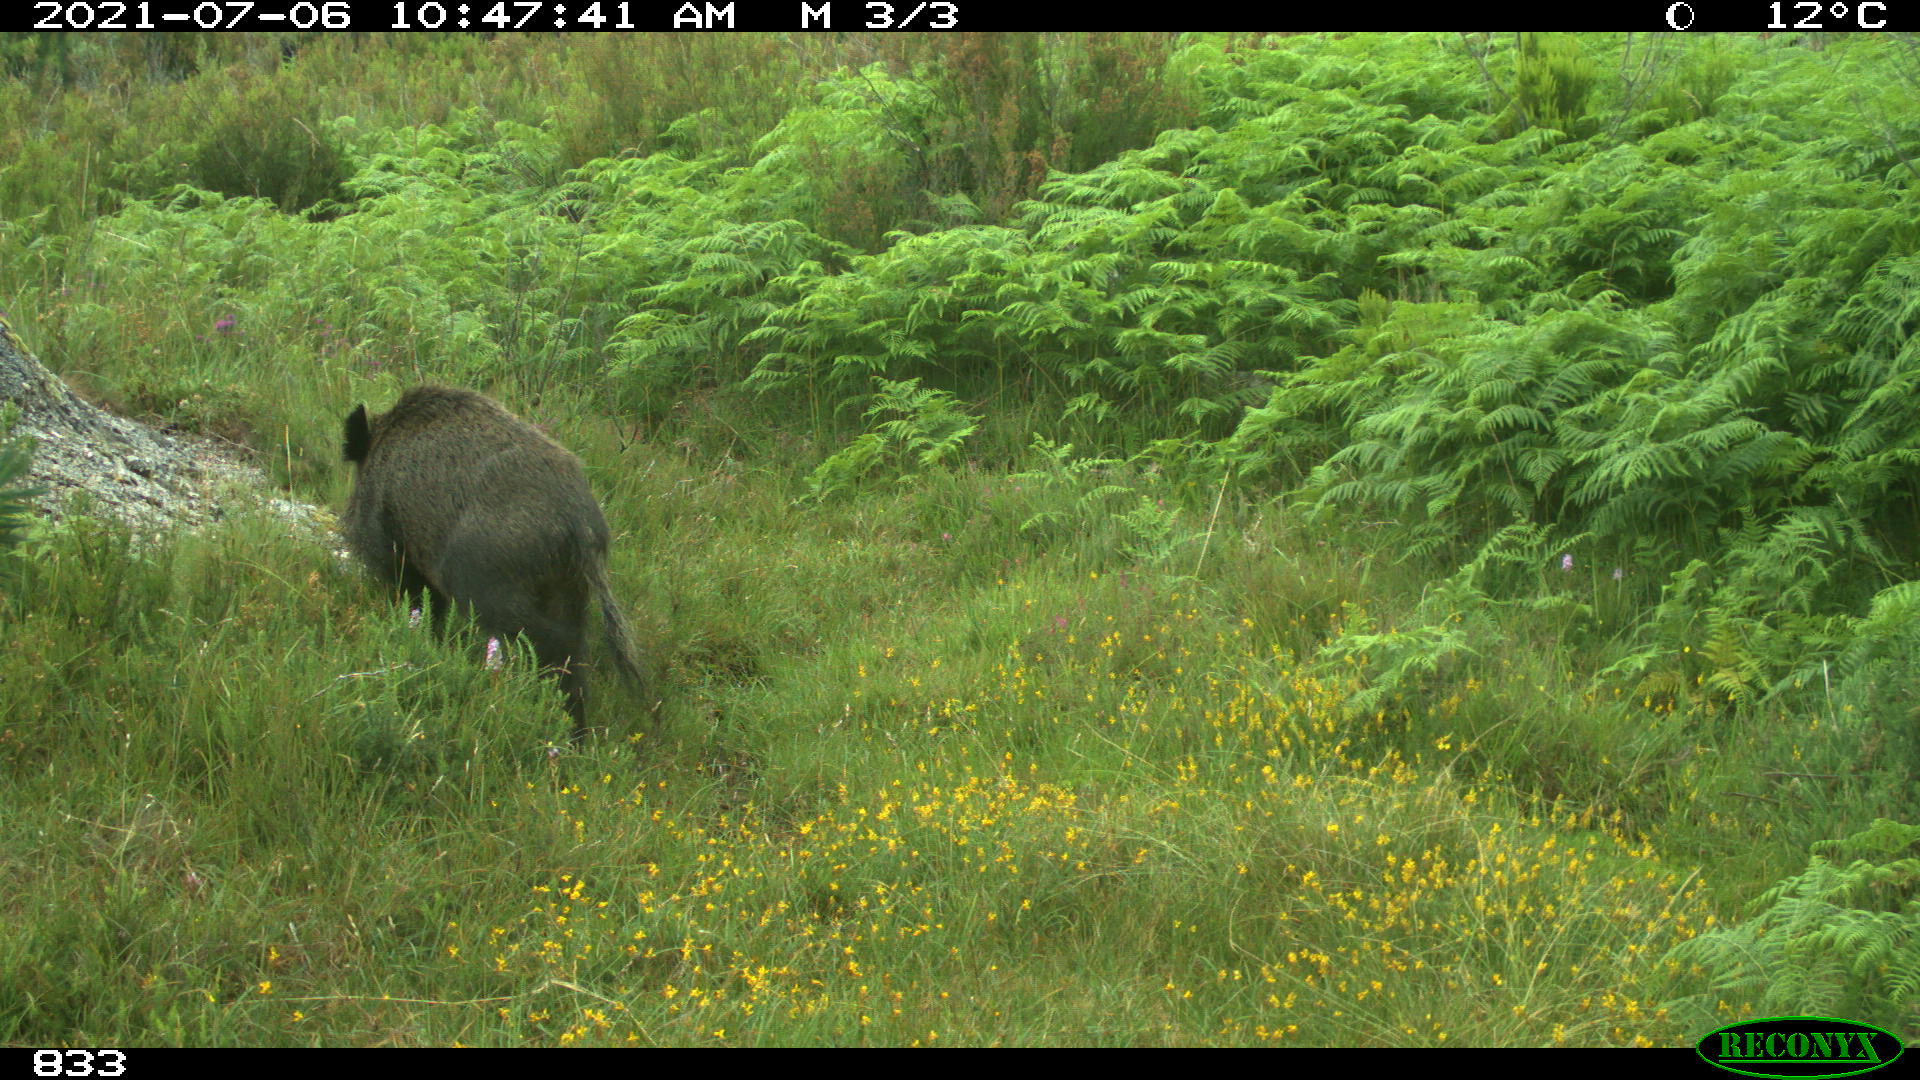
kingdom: Animalia
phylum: Chordata
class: Mammalia
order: Artiodactyla
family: Suidae
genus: Sus
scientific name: Sus scrofa
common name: Wild boar
